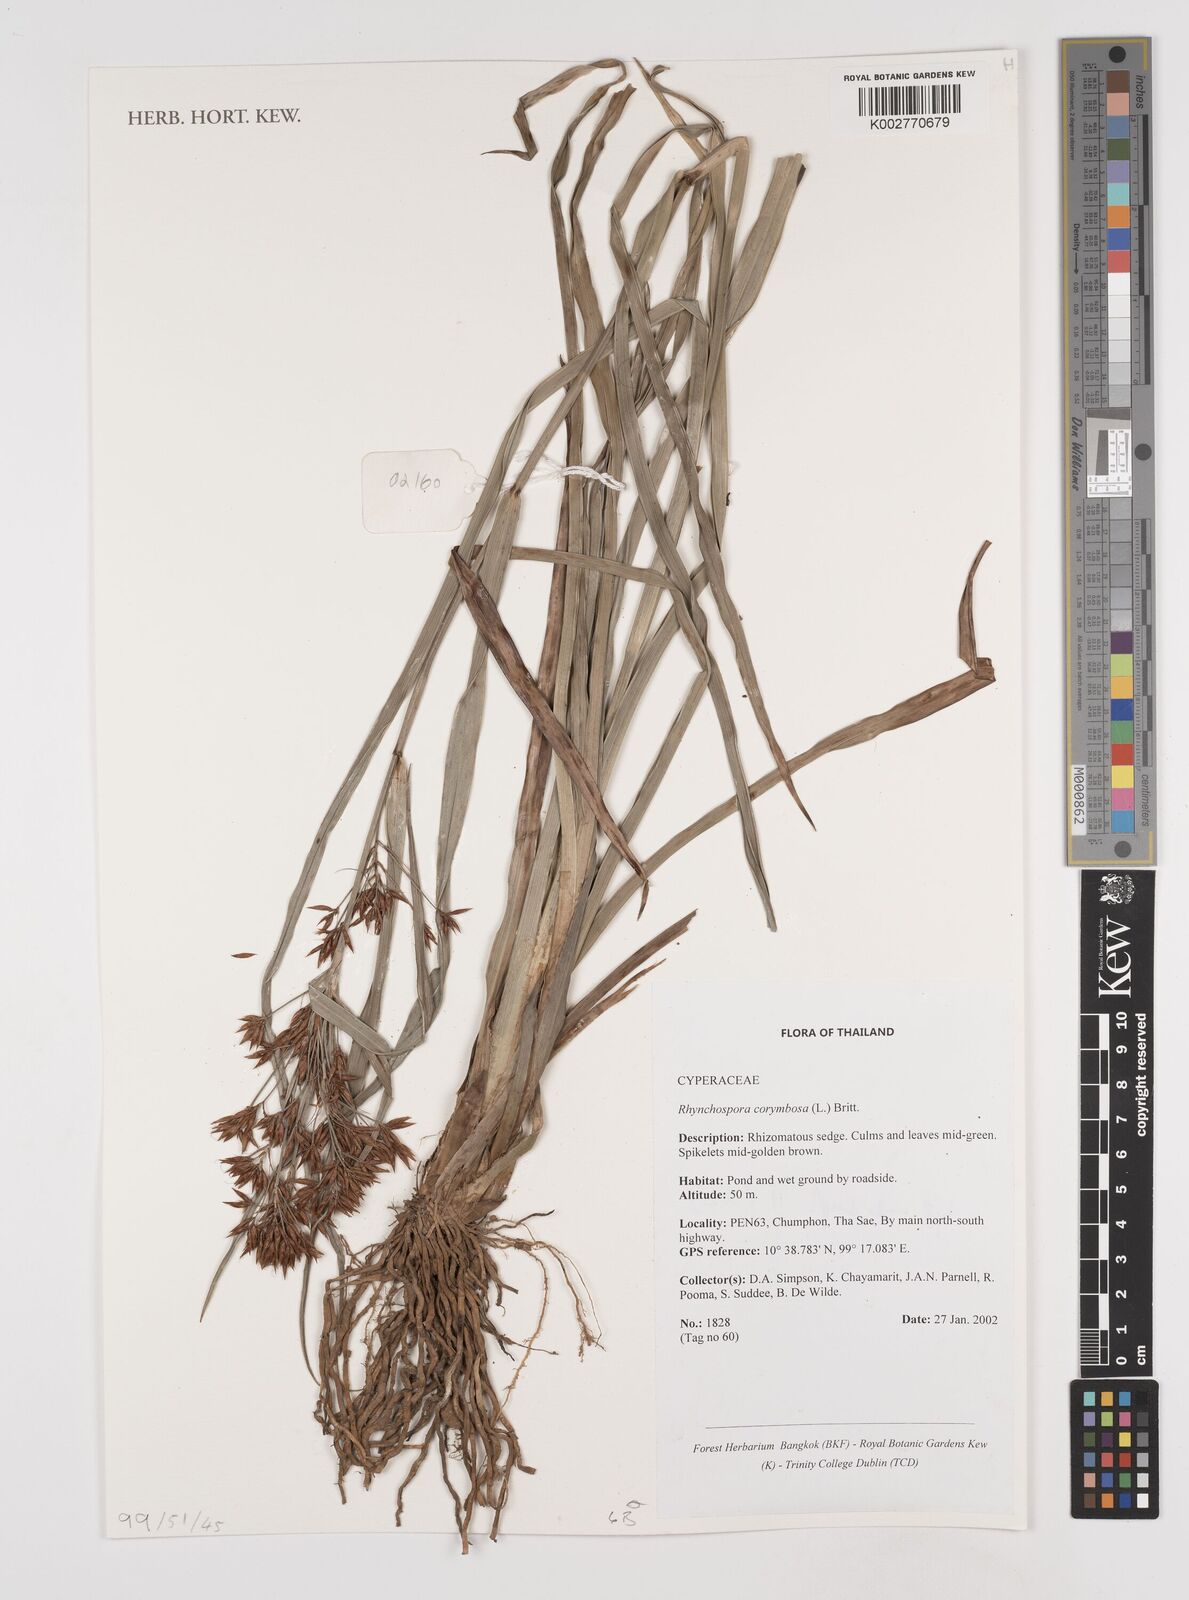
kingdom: Plantae
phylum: Tracheophyta
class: Liliopsida
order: Poales
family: Cyperaceae
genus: Rhynchospora
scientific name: Rhynchospora corymbosa
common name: Golden beak sedge
